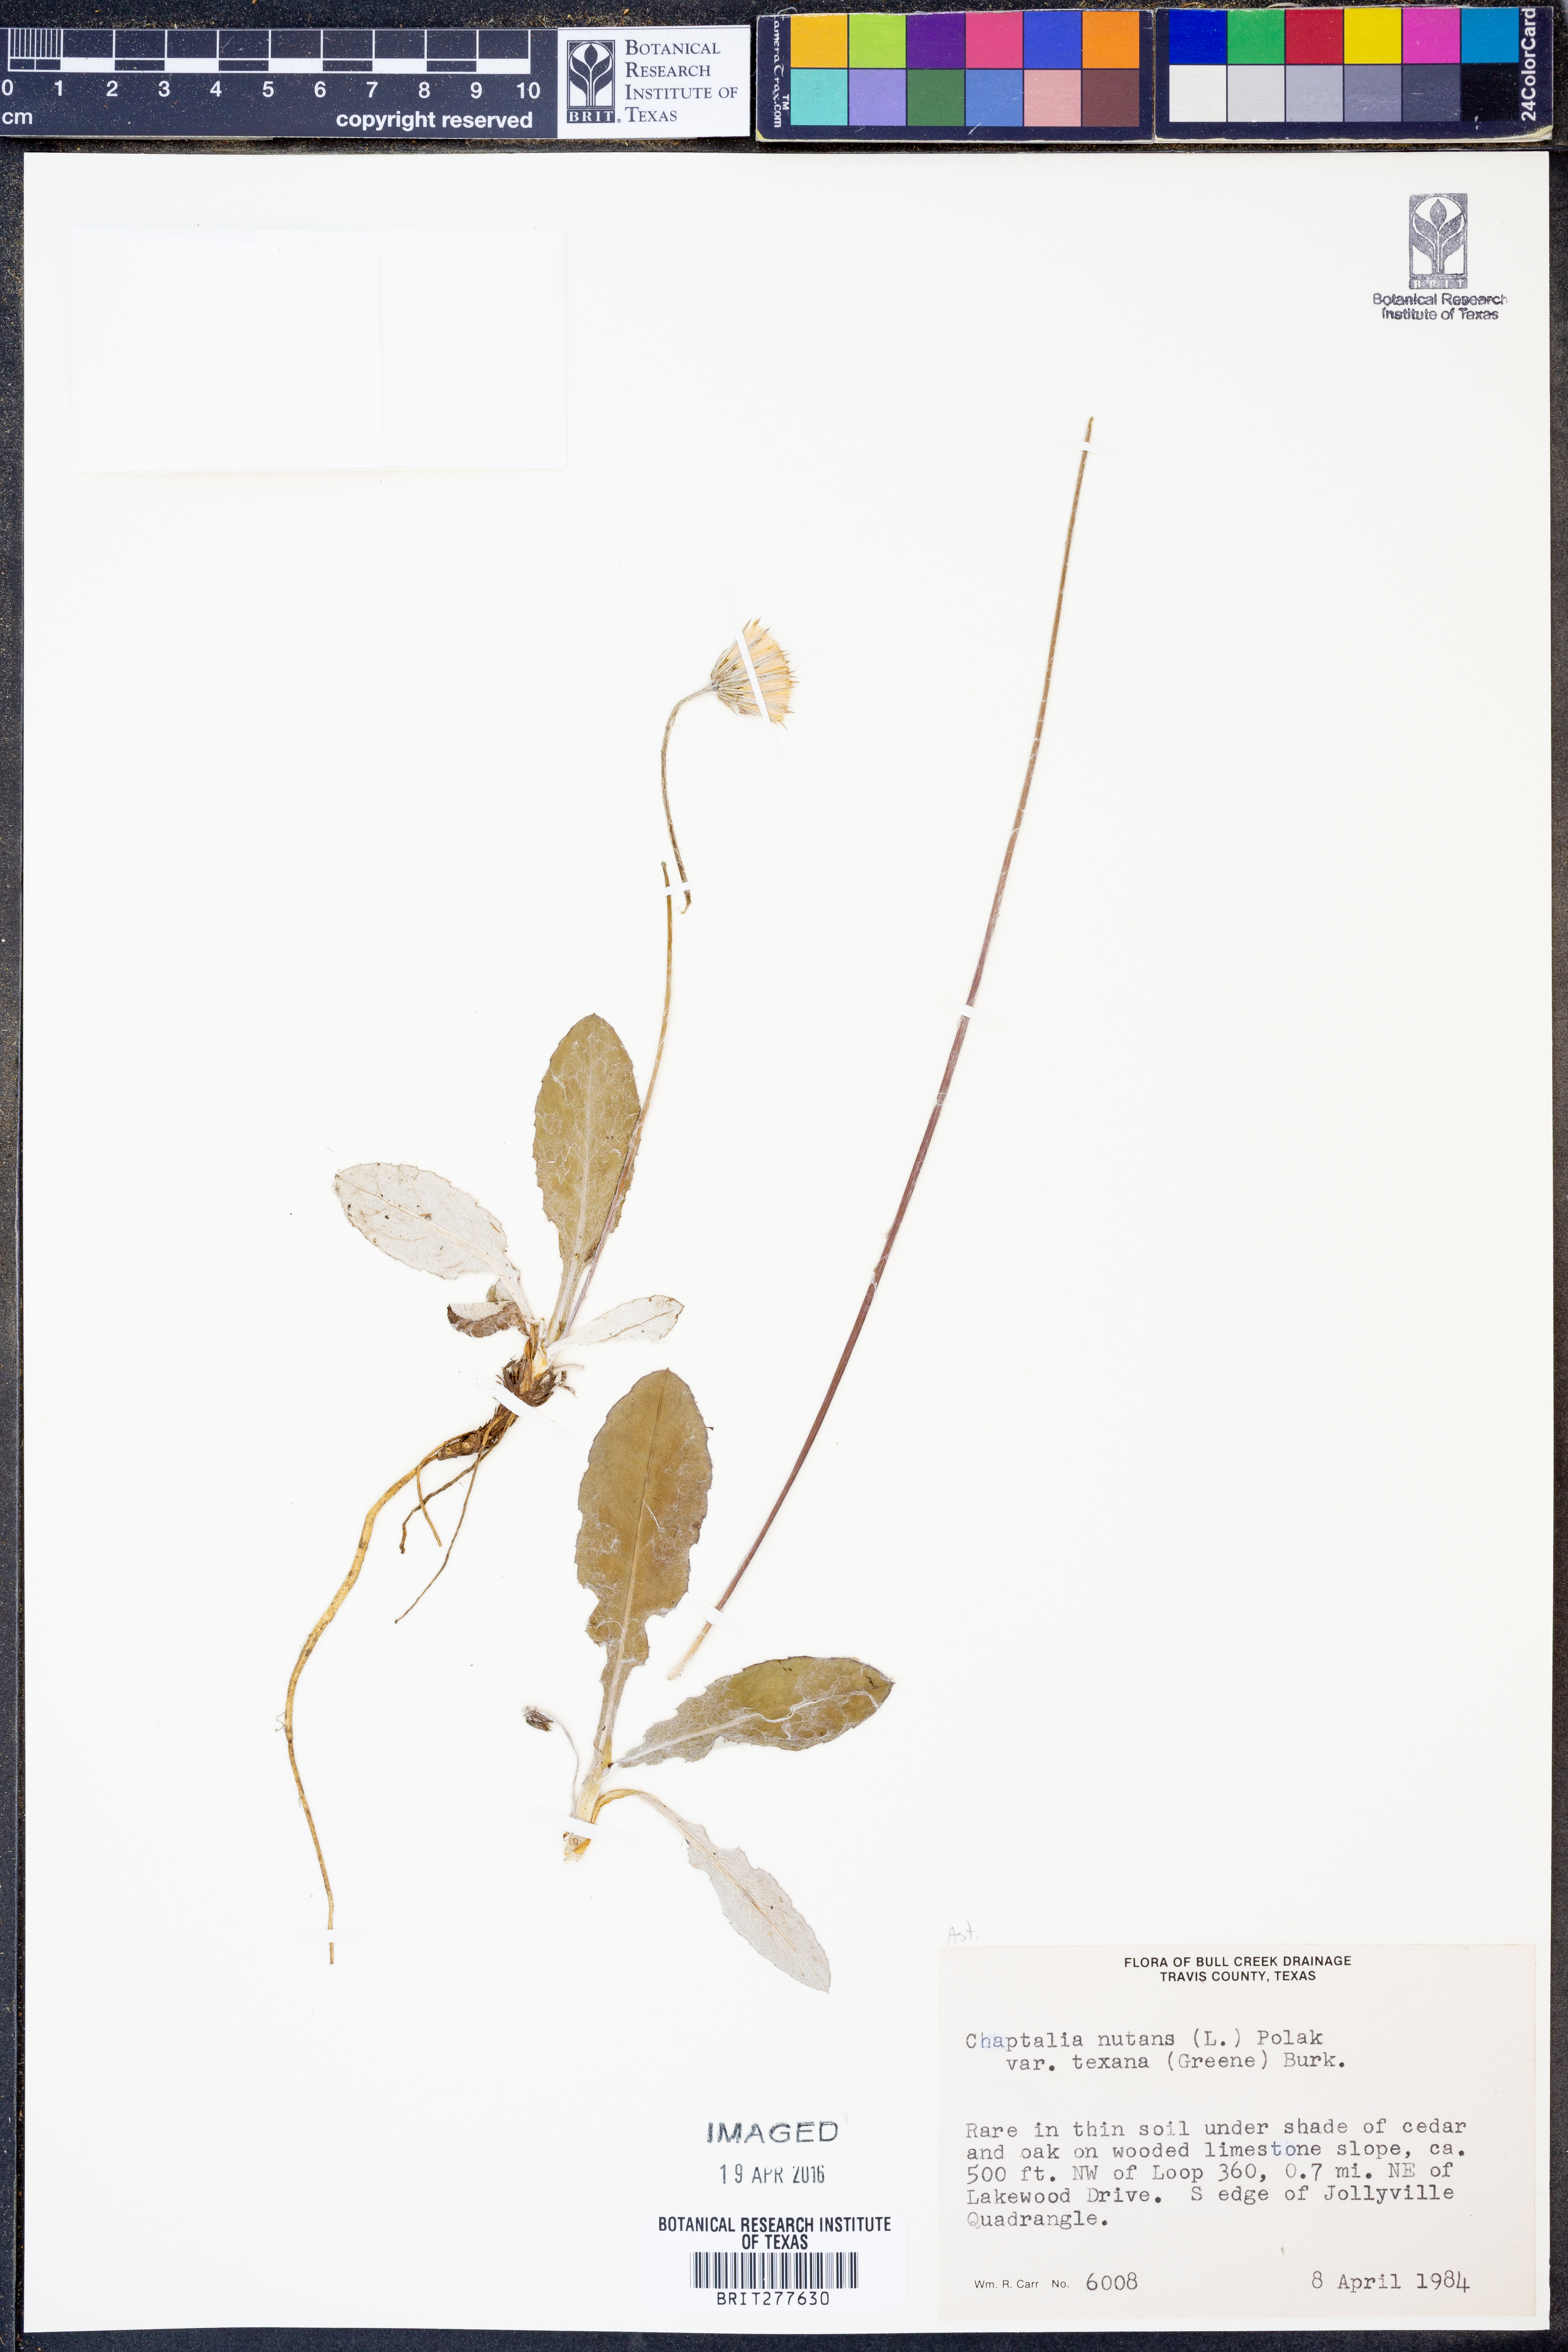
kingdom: Plantae
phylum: Tracheophyta
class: Magnoliopsida
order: Asterales
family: Asteraceae
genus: Chaptalia
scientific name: Chaptalia texana
